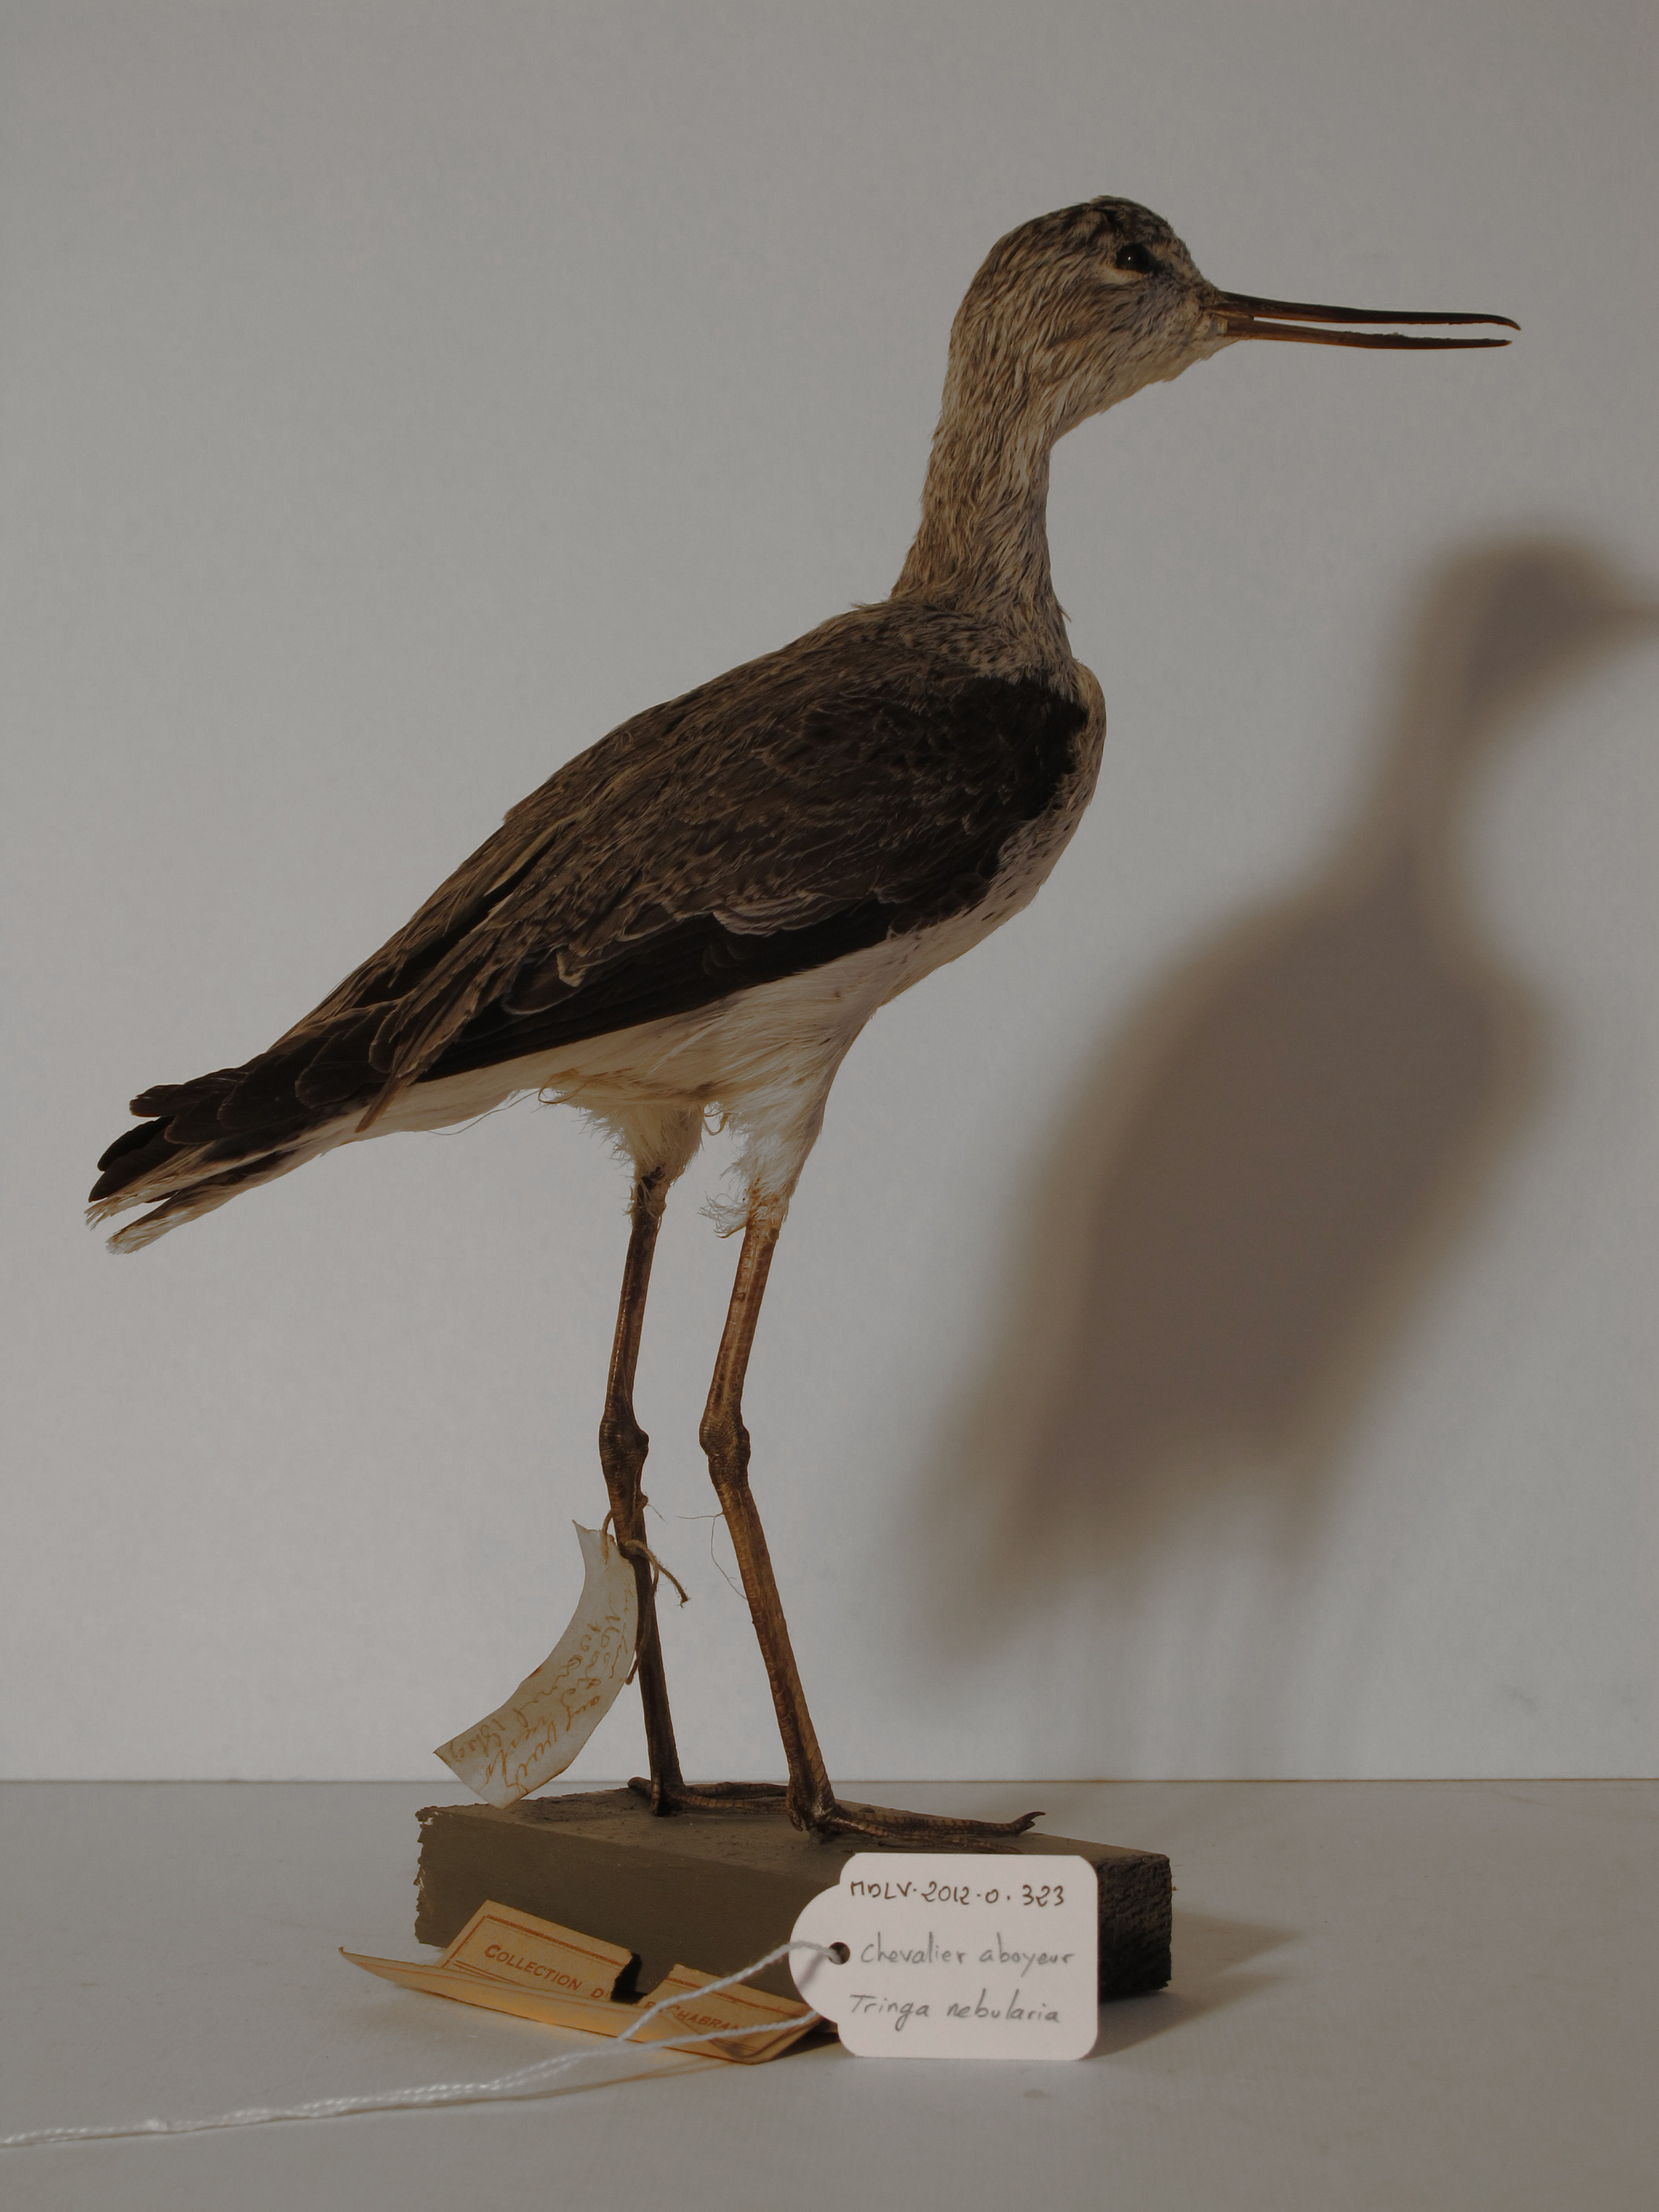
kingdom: Animalia
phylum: Chordata
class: Aves
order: Charadriiformes
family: Scolopacidae
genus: Tringa
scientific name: Tringa nebularia
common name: Common Greenshank
